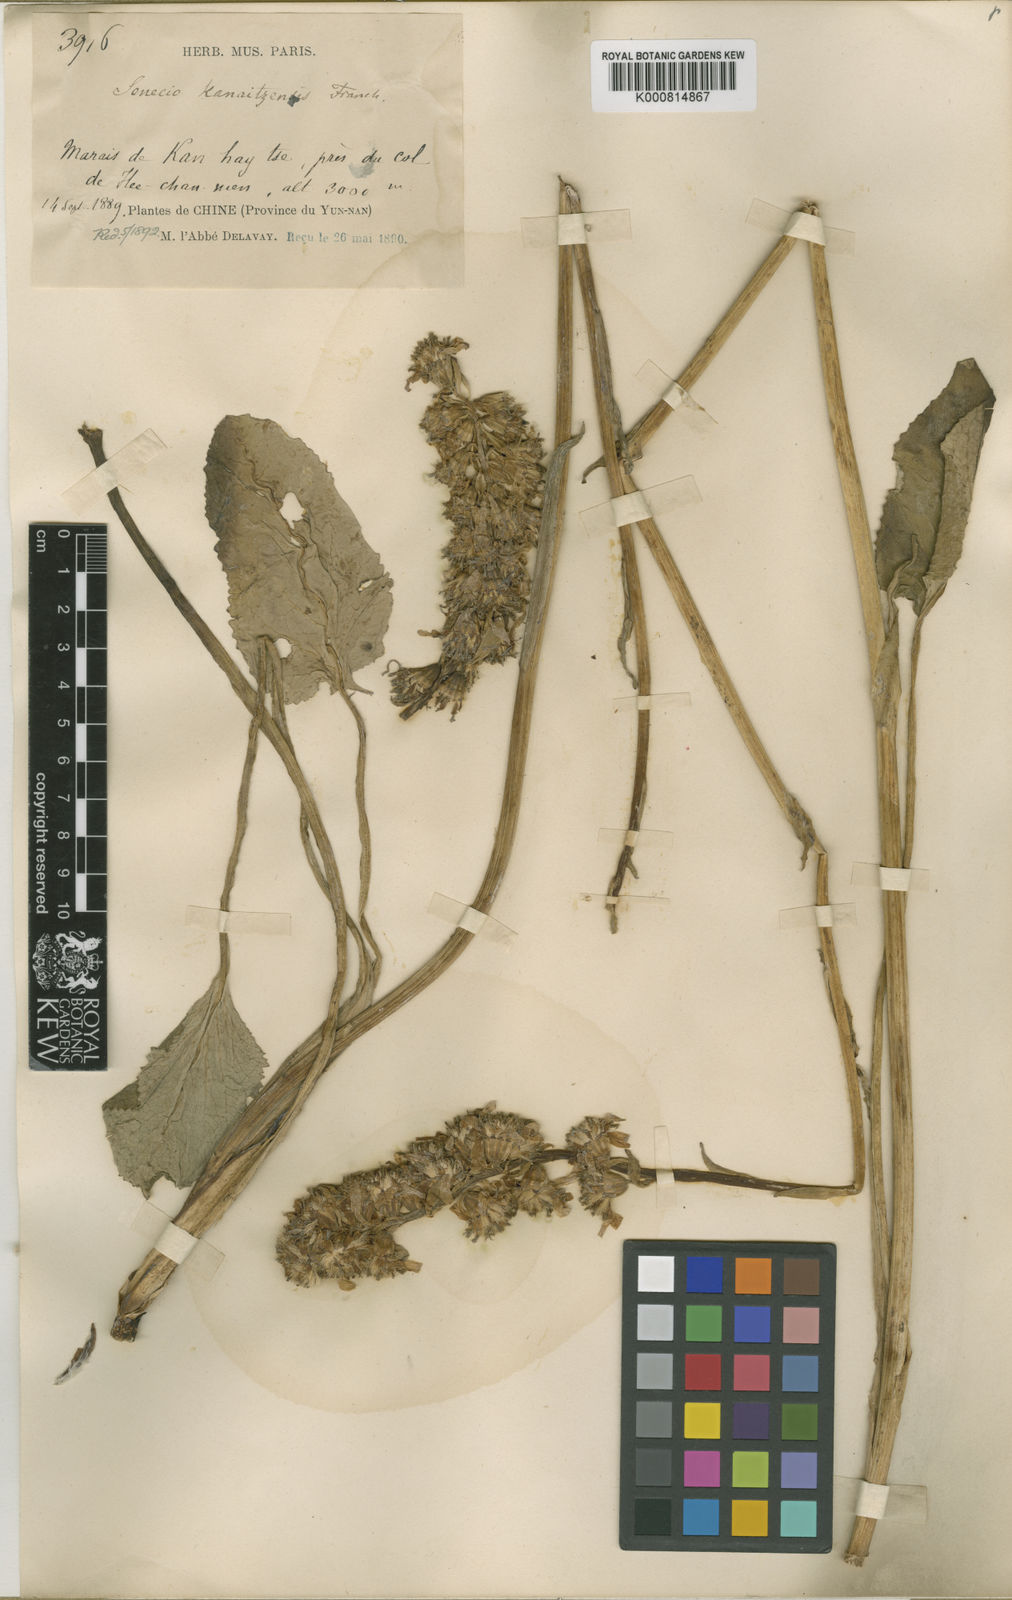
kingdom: Plantae
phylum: Tracheophyta
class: Magnoliopsida
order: Asterales
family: Asteraceae
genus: Ligularia
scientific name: Ligularia kanaitzensis
